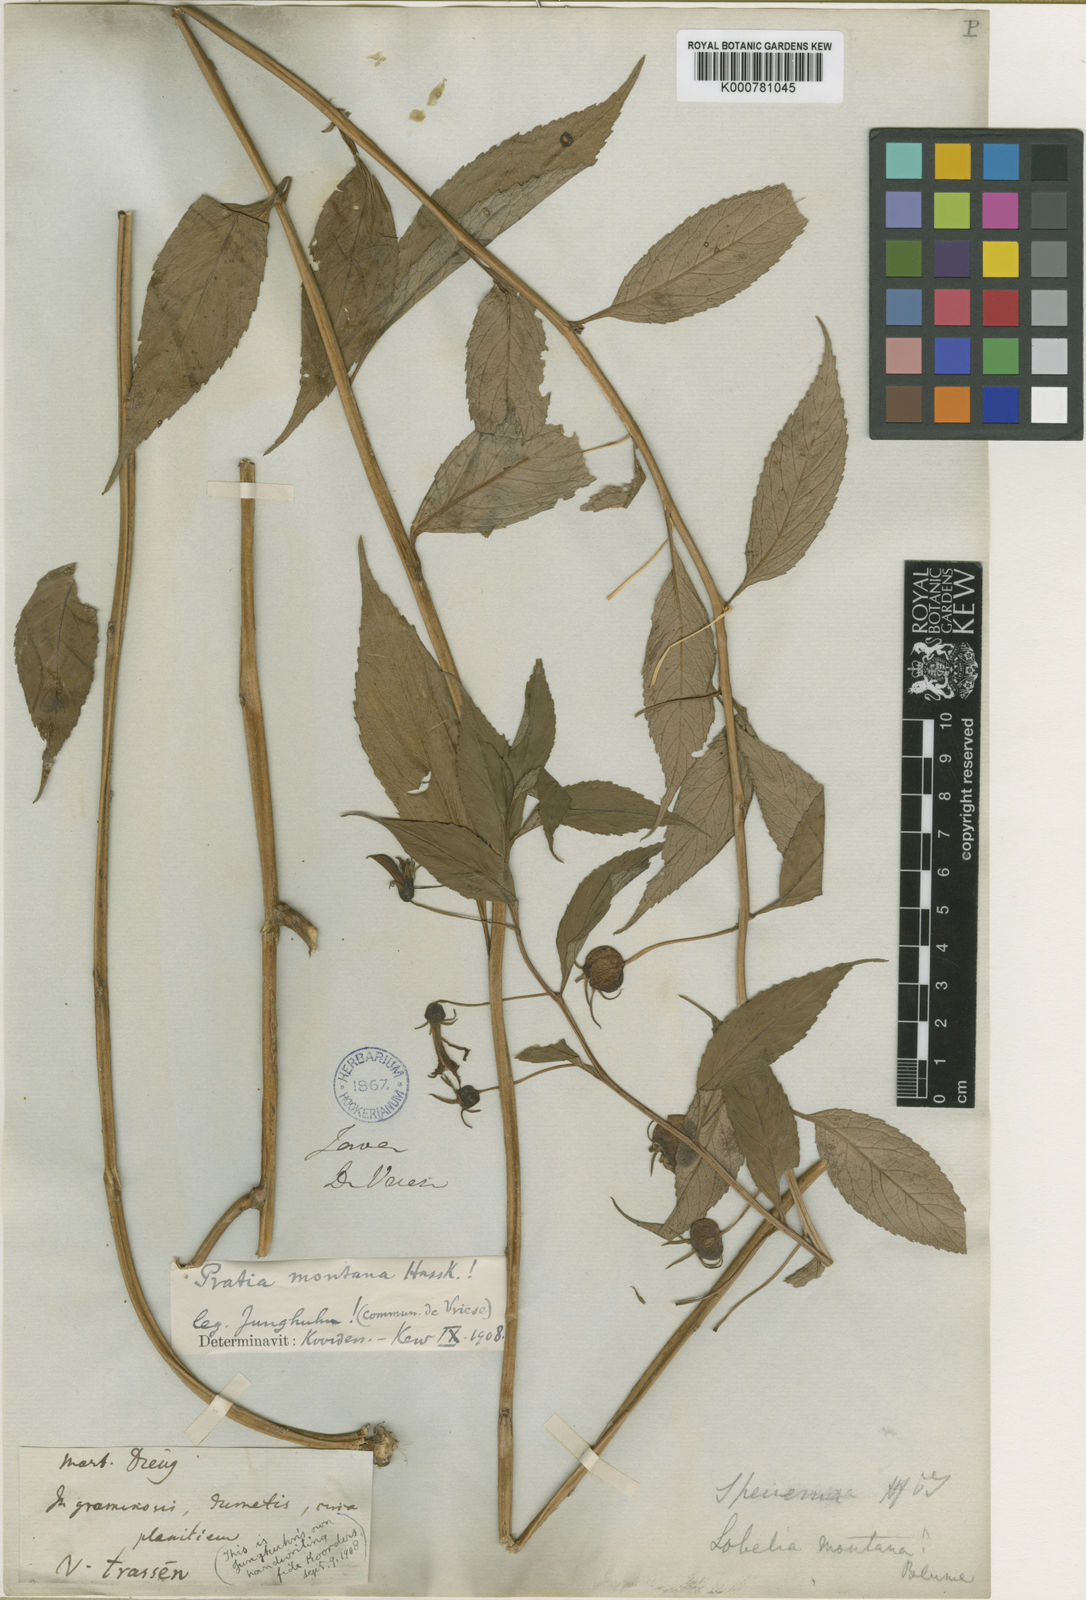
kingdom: Plantae
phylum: Tracheophyta
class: Magnoliopsida
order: Asterales
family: Campanulaceae
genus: Lobelia
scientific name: Lobelia montana
